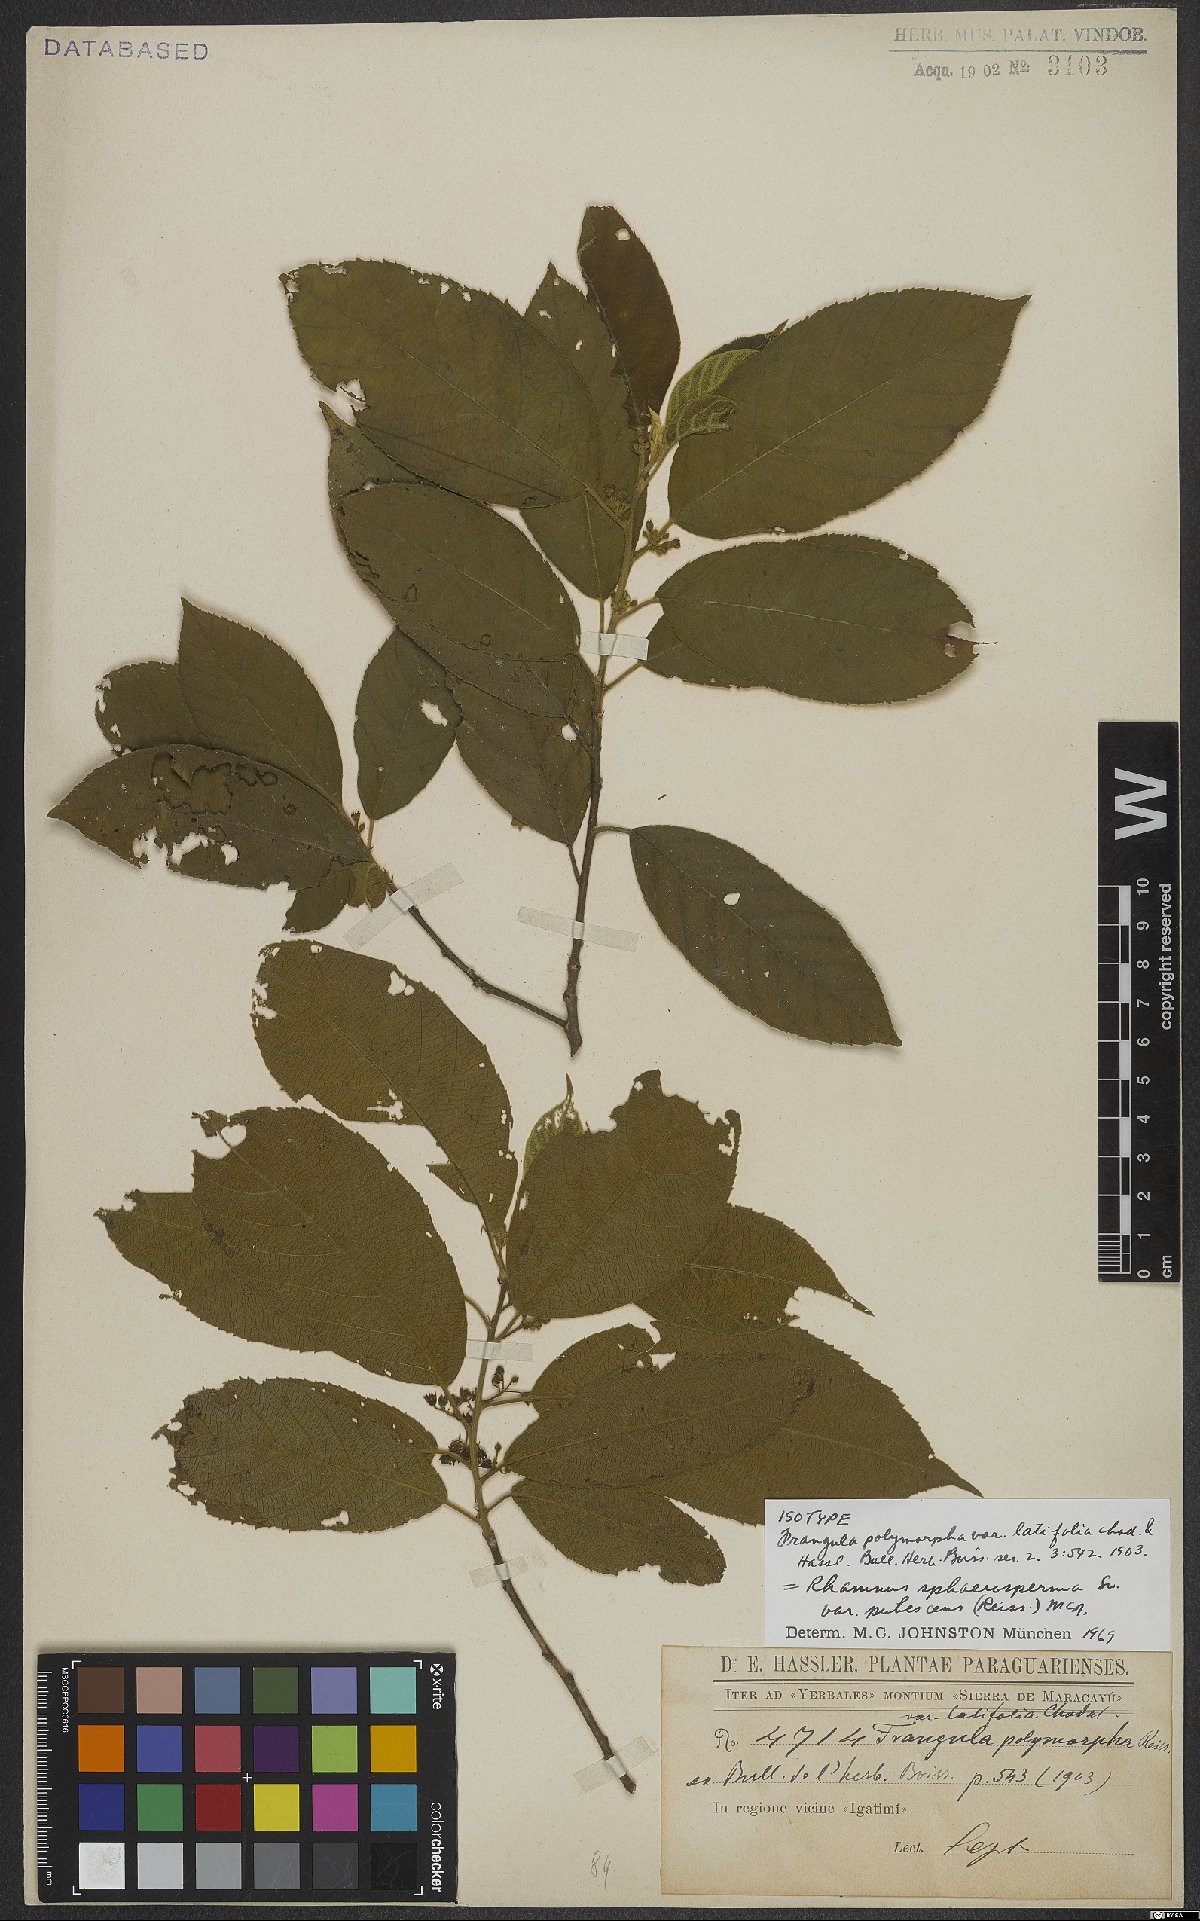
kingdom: Plantae
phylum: Tracheophyta
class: Magnoliopsida
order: Rosales
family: Rhamnaceae
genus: Frangula
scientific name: Frangula sphaerosperma
